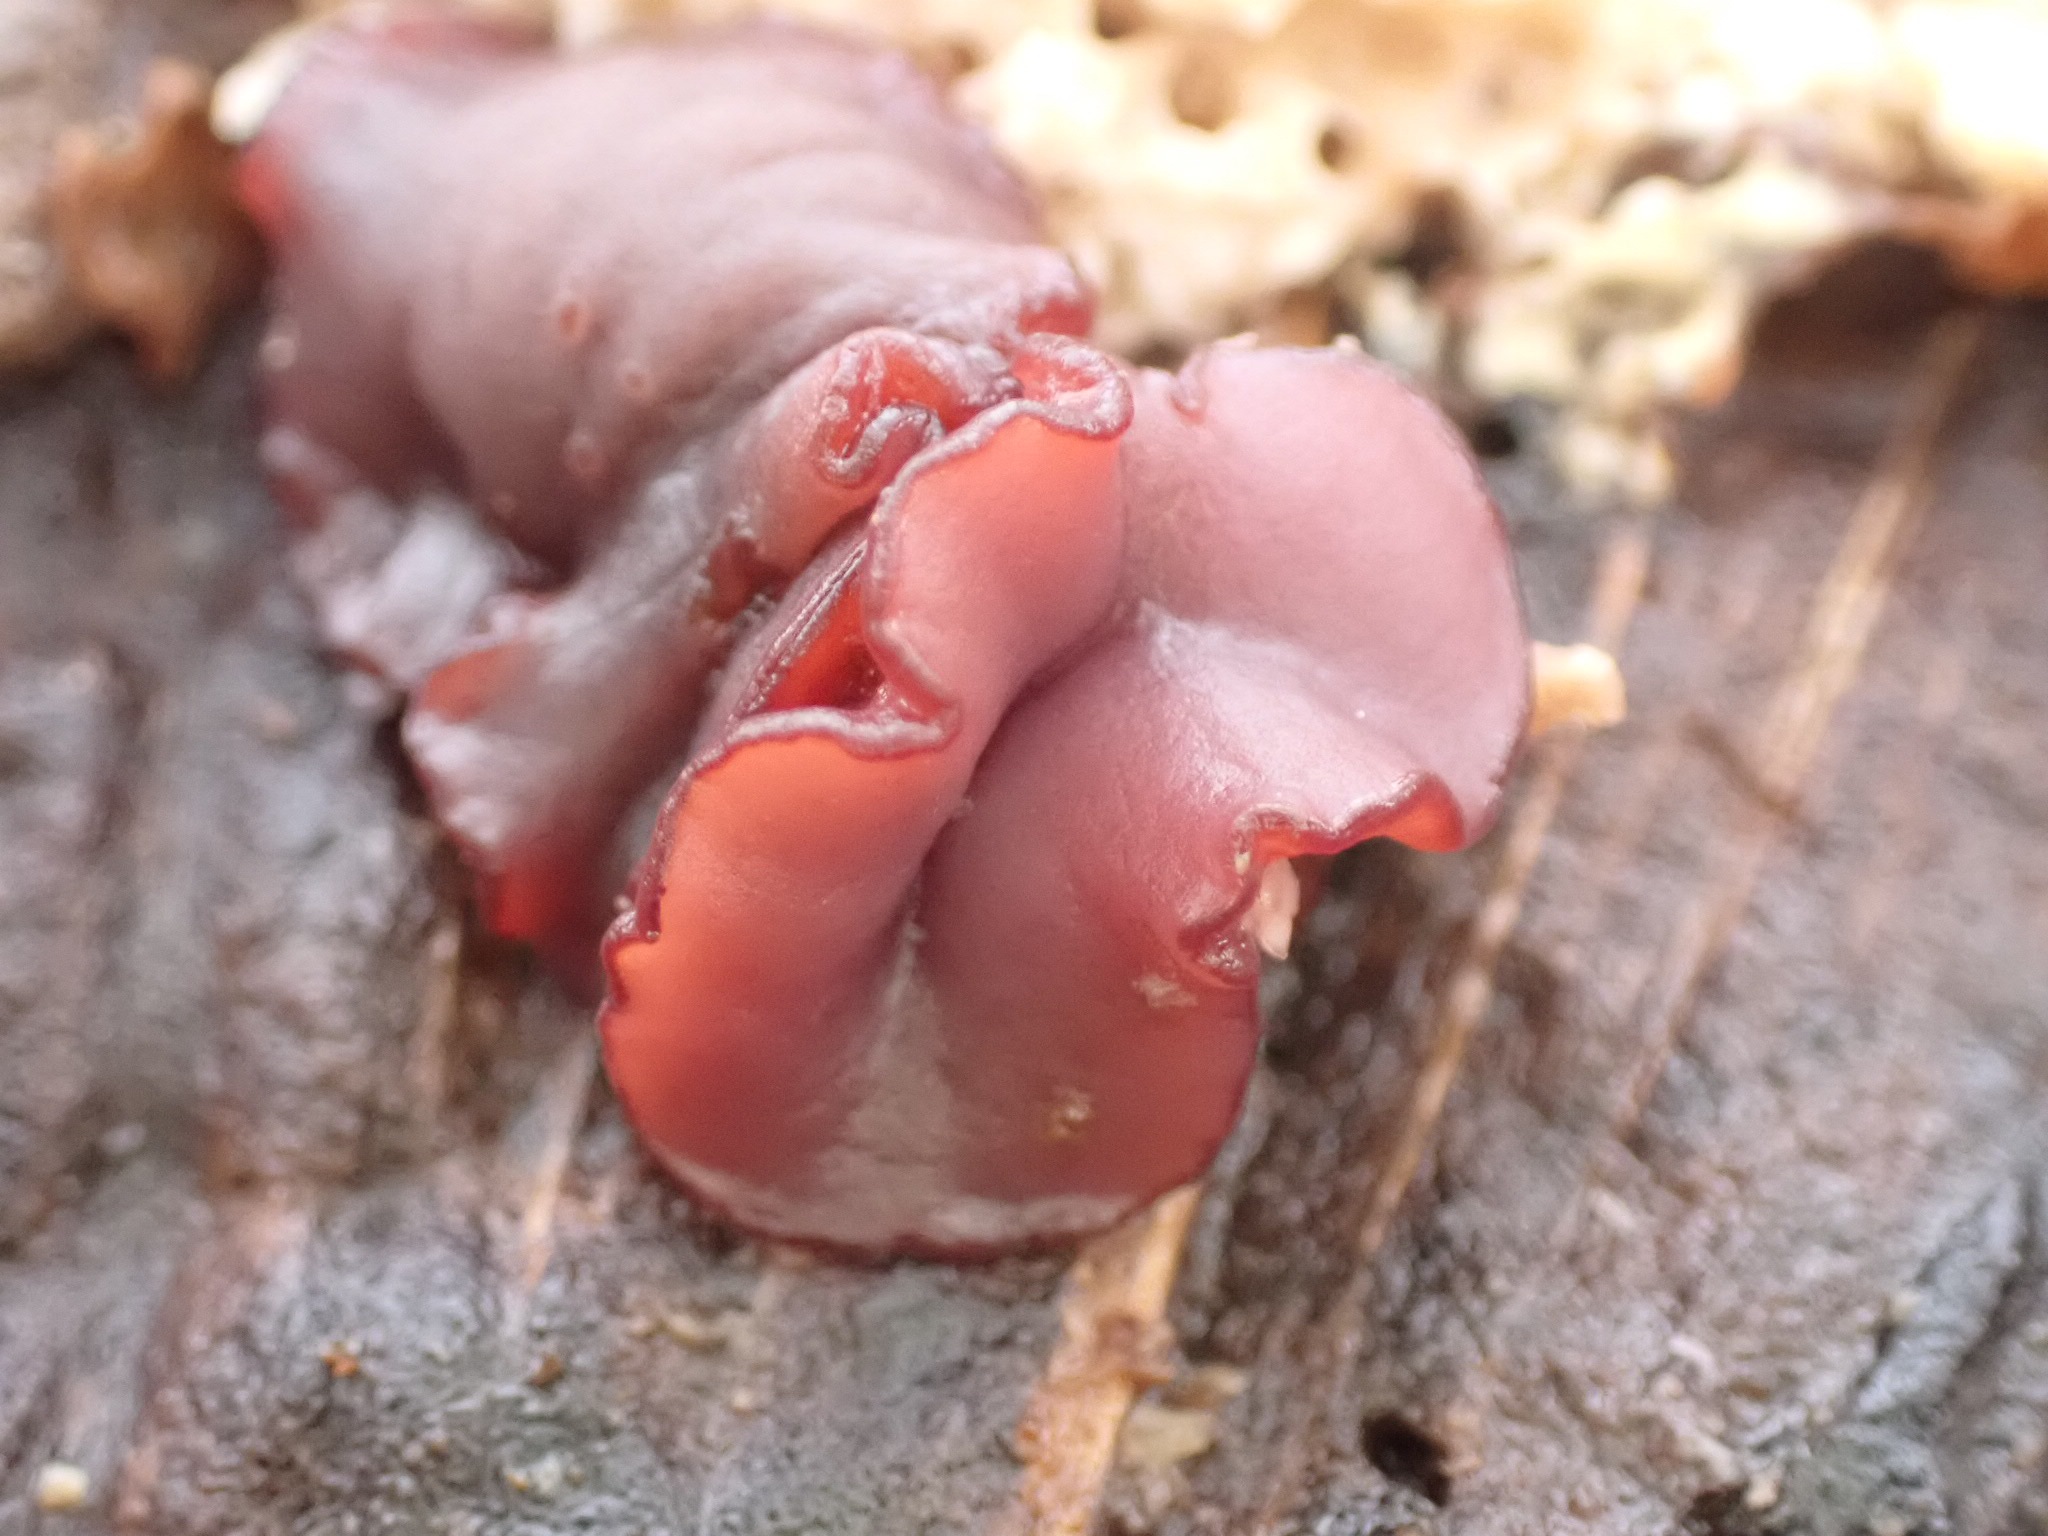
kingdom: Fungi
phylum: Ascomycota
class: Leotiomycetes
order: Helotiales
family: Gelatinodiscaceae
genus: Ascocoryne
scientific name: Ascocoryne cylichnium
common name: stor sejskive
